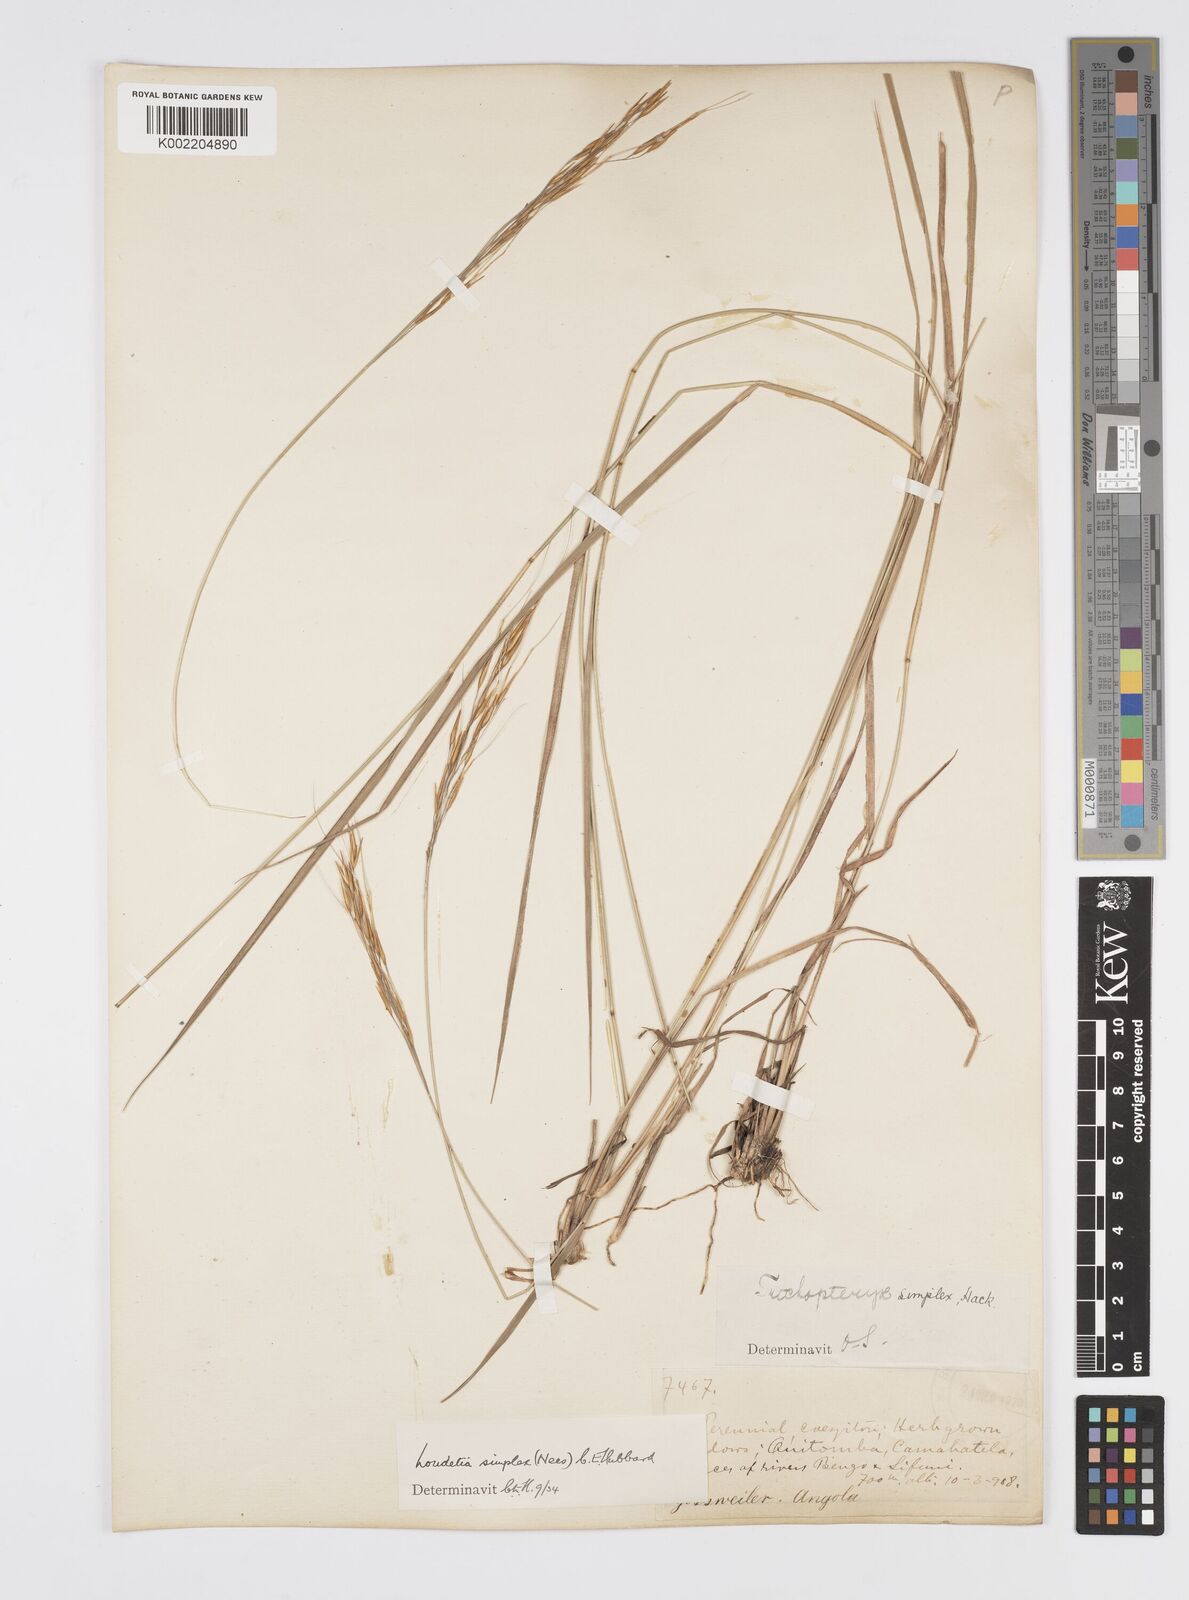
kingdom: Plantae
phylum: Tracheophyta
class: Liliopsida
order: Poales
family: Poaceae
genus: Loudetia
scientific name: Loudetia simplex
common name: Common russet grass
